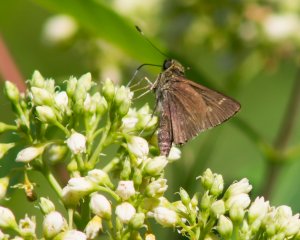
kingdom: Animalia
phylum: Arthropoda
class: Insecta
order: Lepidoptera
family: Hesperiidae
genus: Vernia
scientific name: Vernia verna
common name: Little Glassywing
